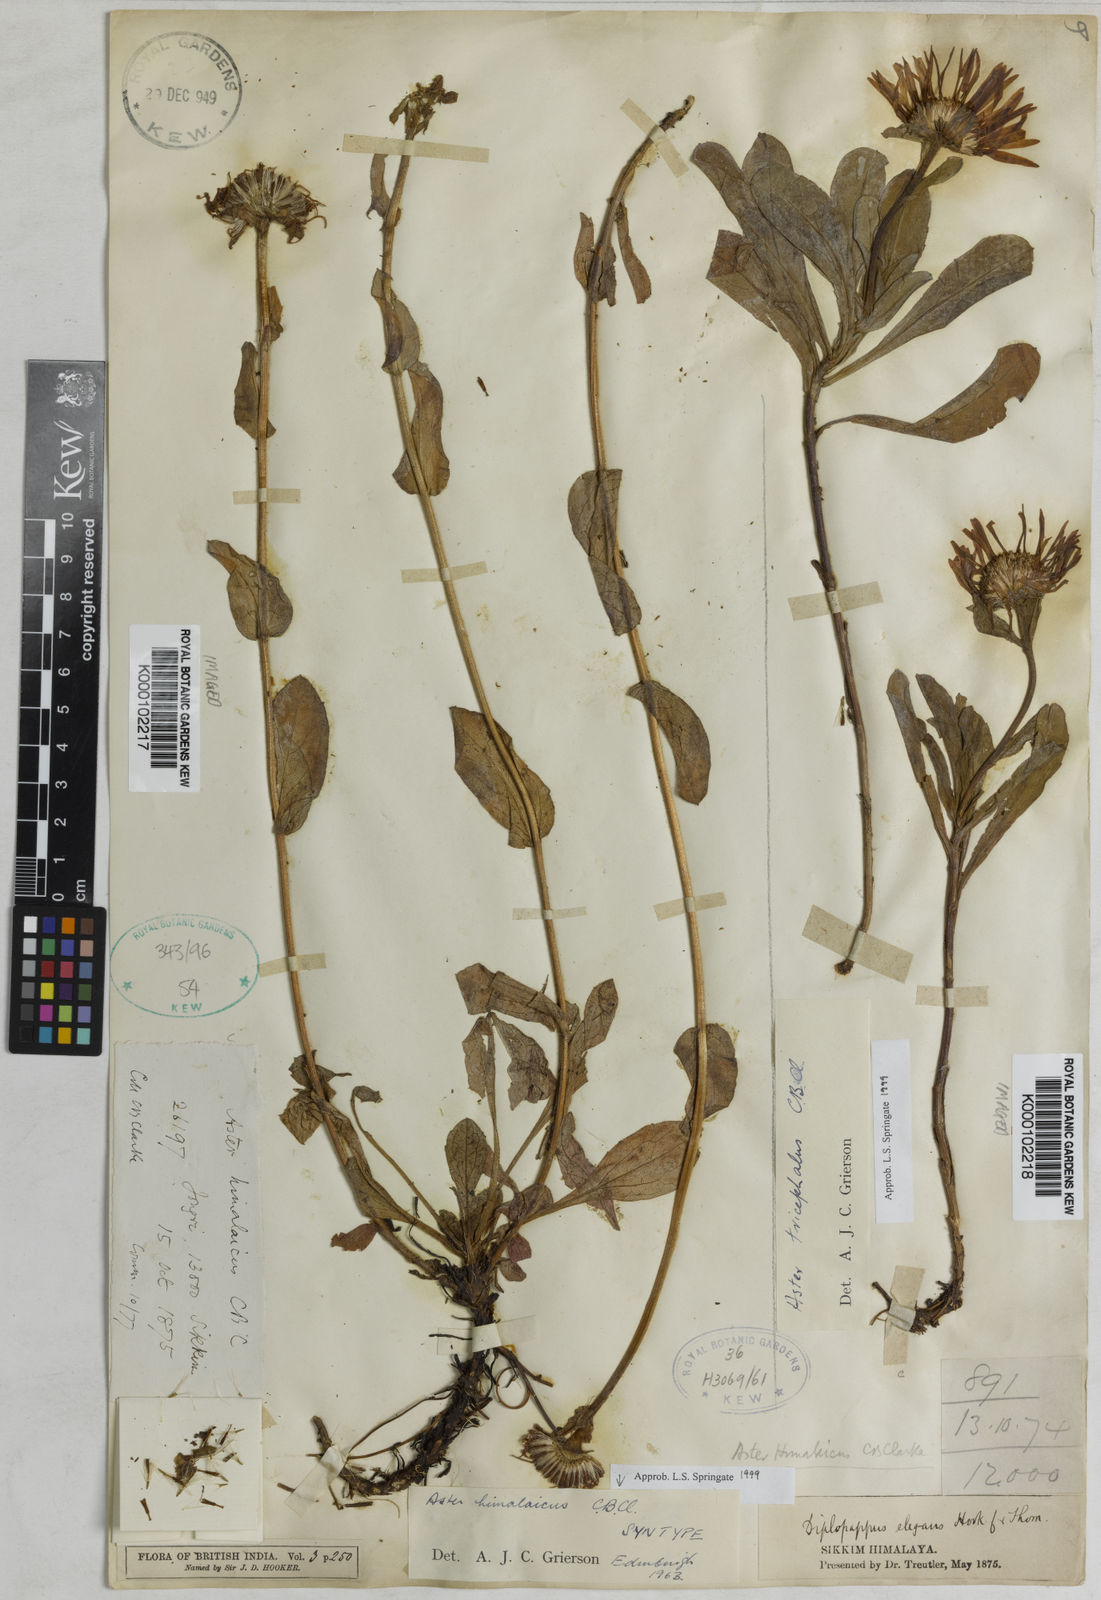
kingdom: Plantae
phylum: Tracheophyta
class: Magnoliopsida
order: Asterales
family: Asteraceae
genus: Tibetiodes
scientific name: Tibetiodes himalaica
